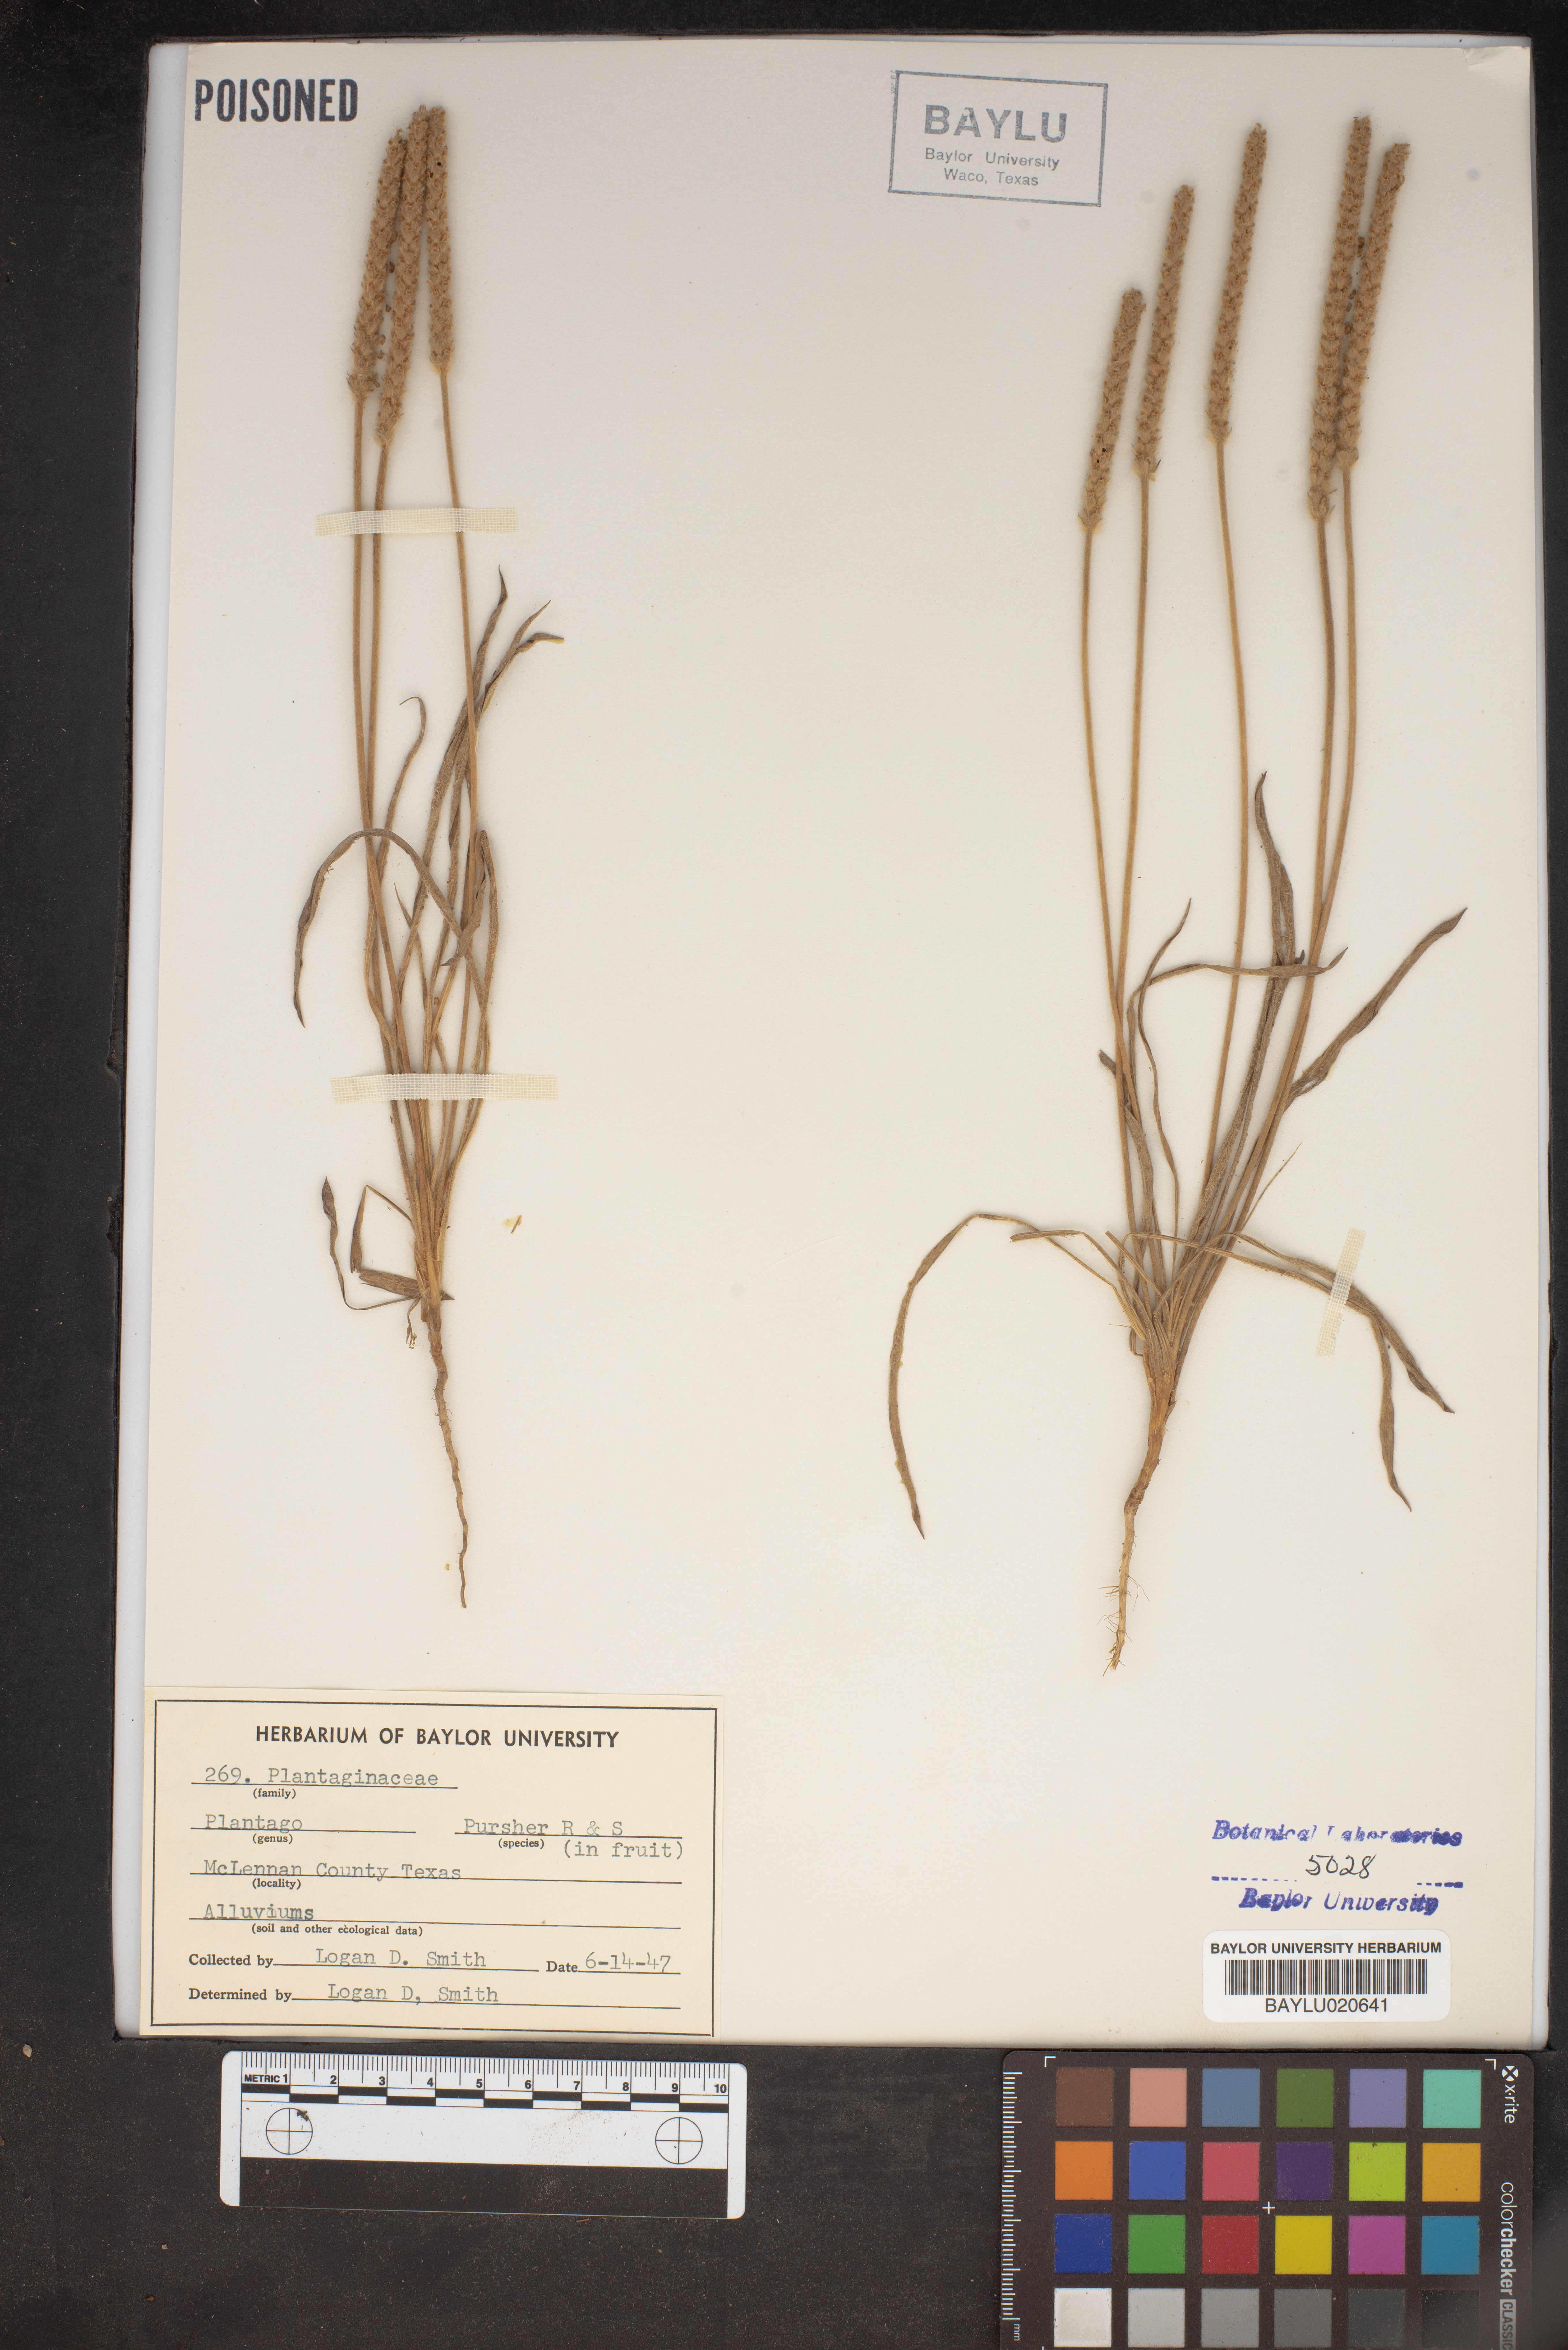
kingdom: Plantae
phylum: Tracheophyta
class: Magnoliopsida
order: Lamiales
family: Plantaginaceae
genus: Plantago
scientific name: Plantago patagonica
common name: Patagonia indian-wheat
